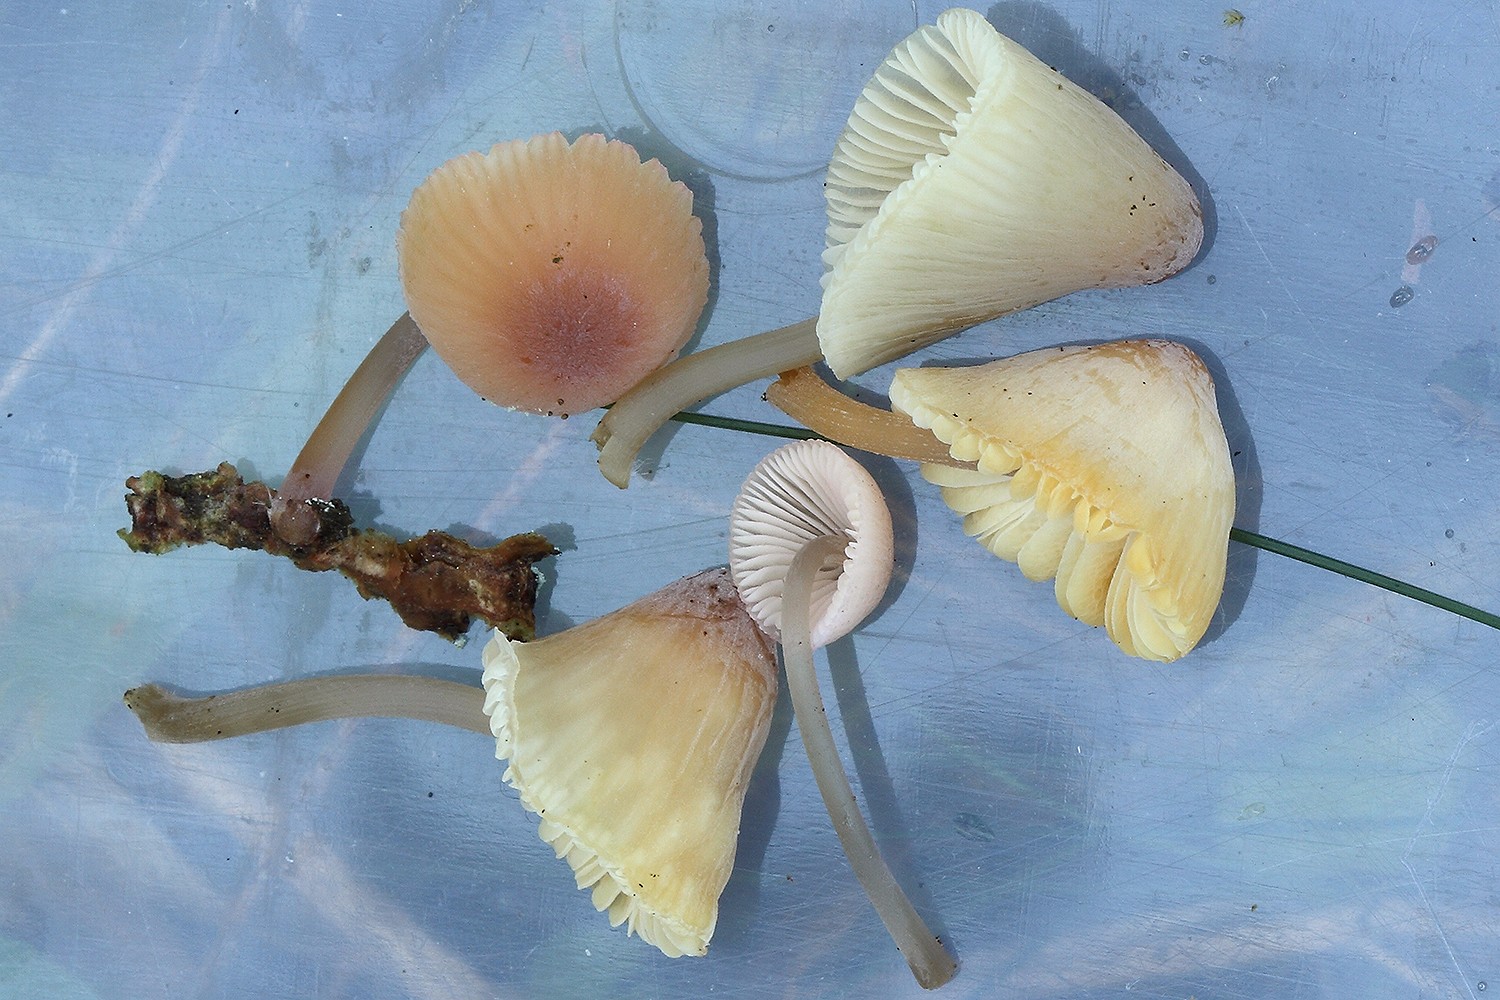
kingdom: Fungi
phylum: Basidiomycota
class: Agaricomycetes
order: Agaricales
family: Mycenaceae
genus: Mycena
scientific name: Mycena metata
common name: rødlig huesvamp
